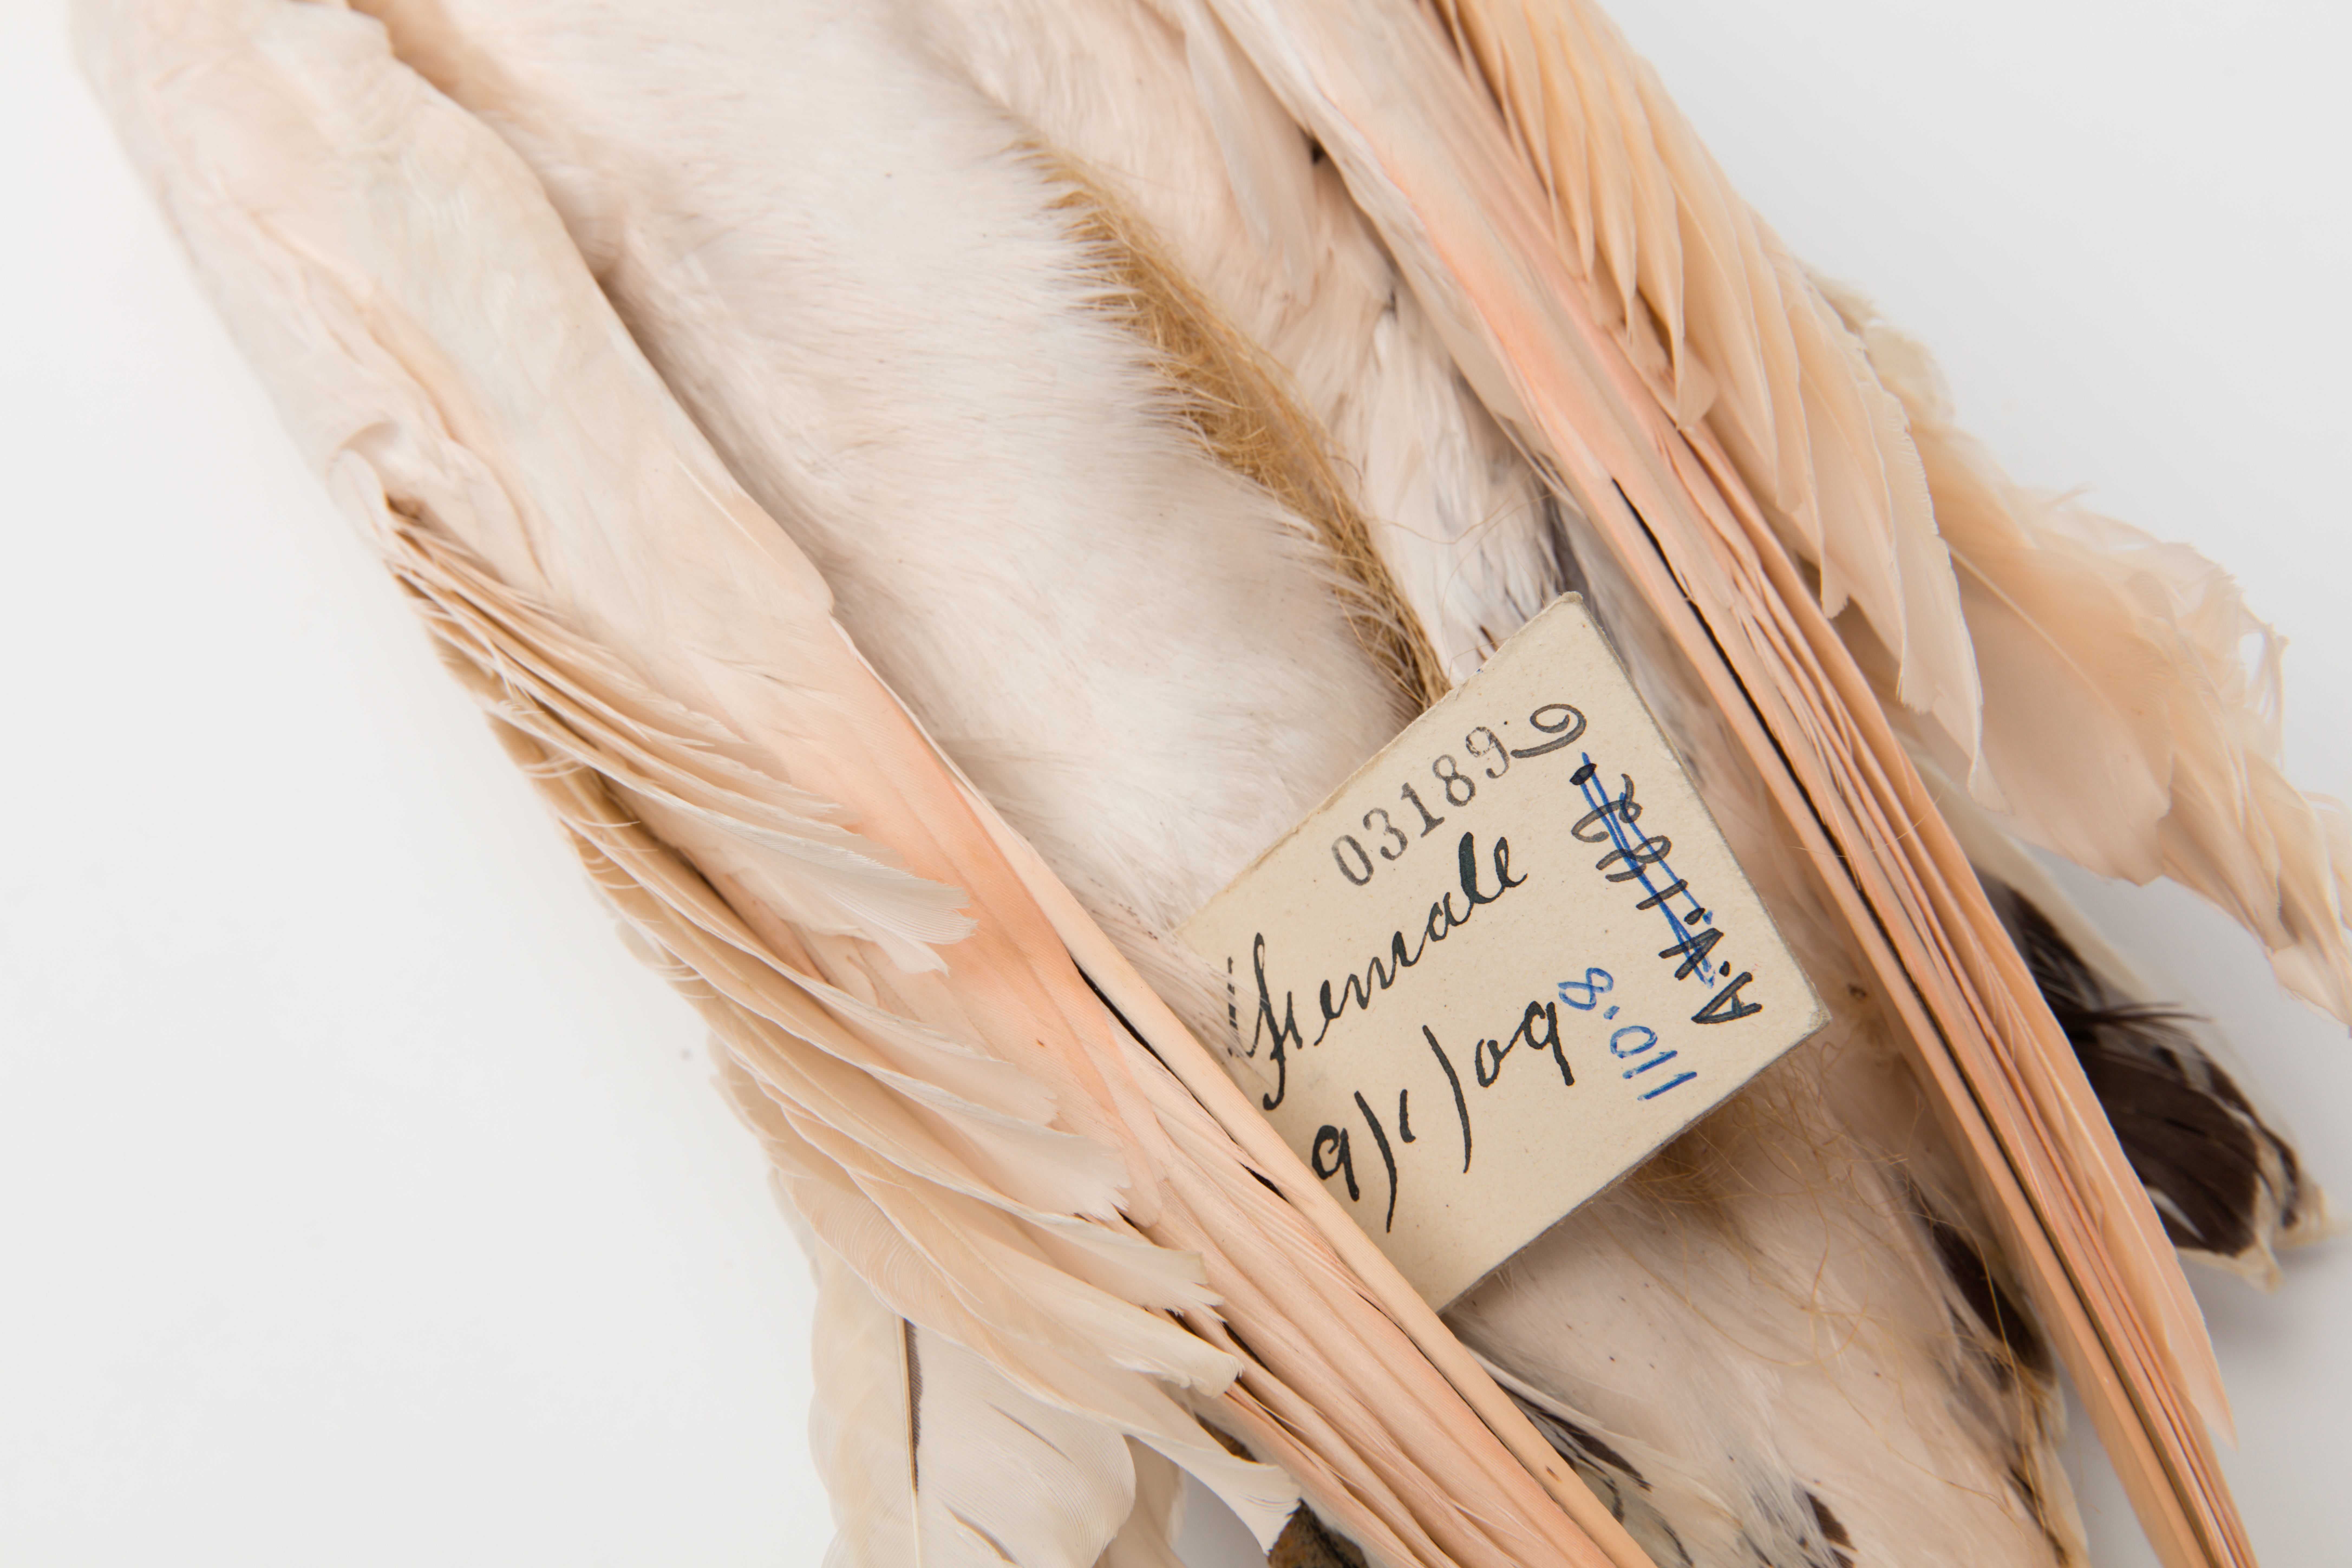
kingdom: Animalia
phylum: Chordata
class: Aves
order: Phaethontiformes
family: Phaethontidae
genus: Phaethon
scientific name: Phaethon rubricauda
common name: Red-tailed tropicbird
